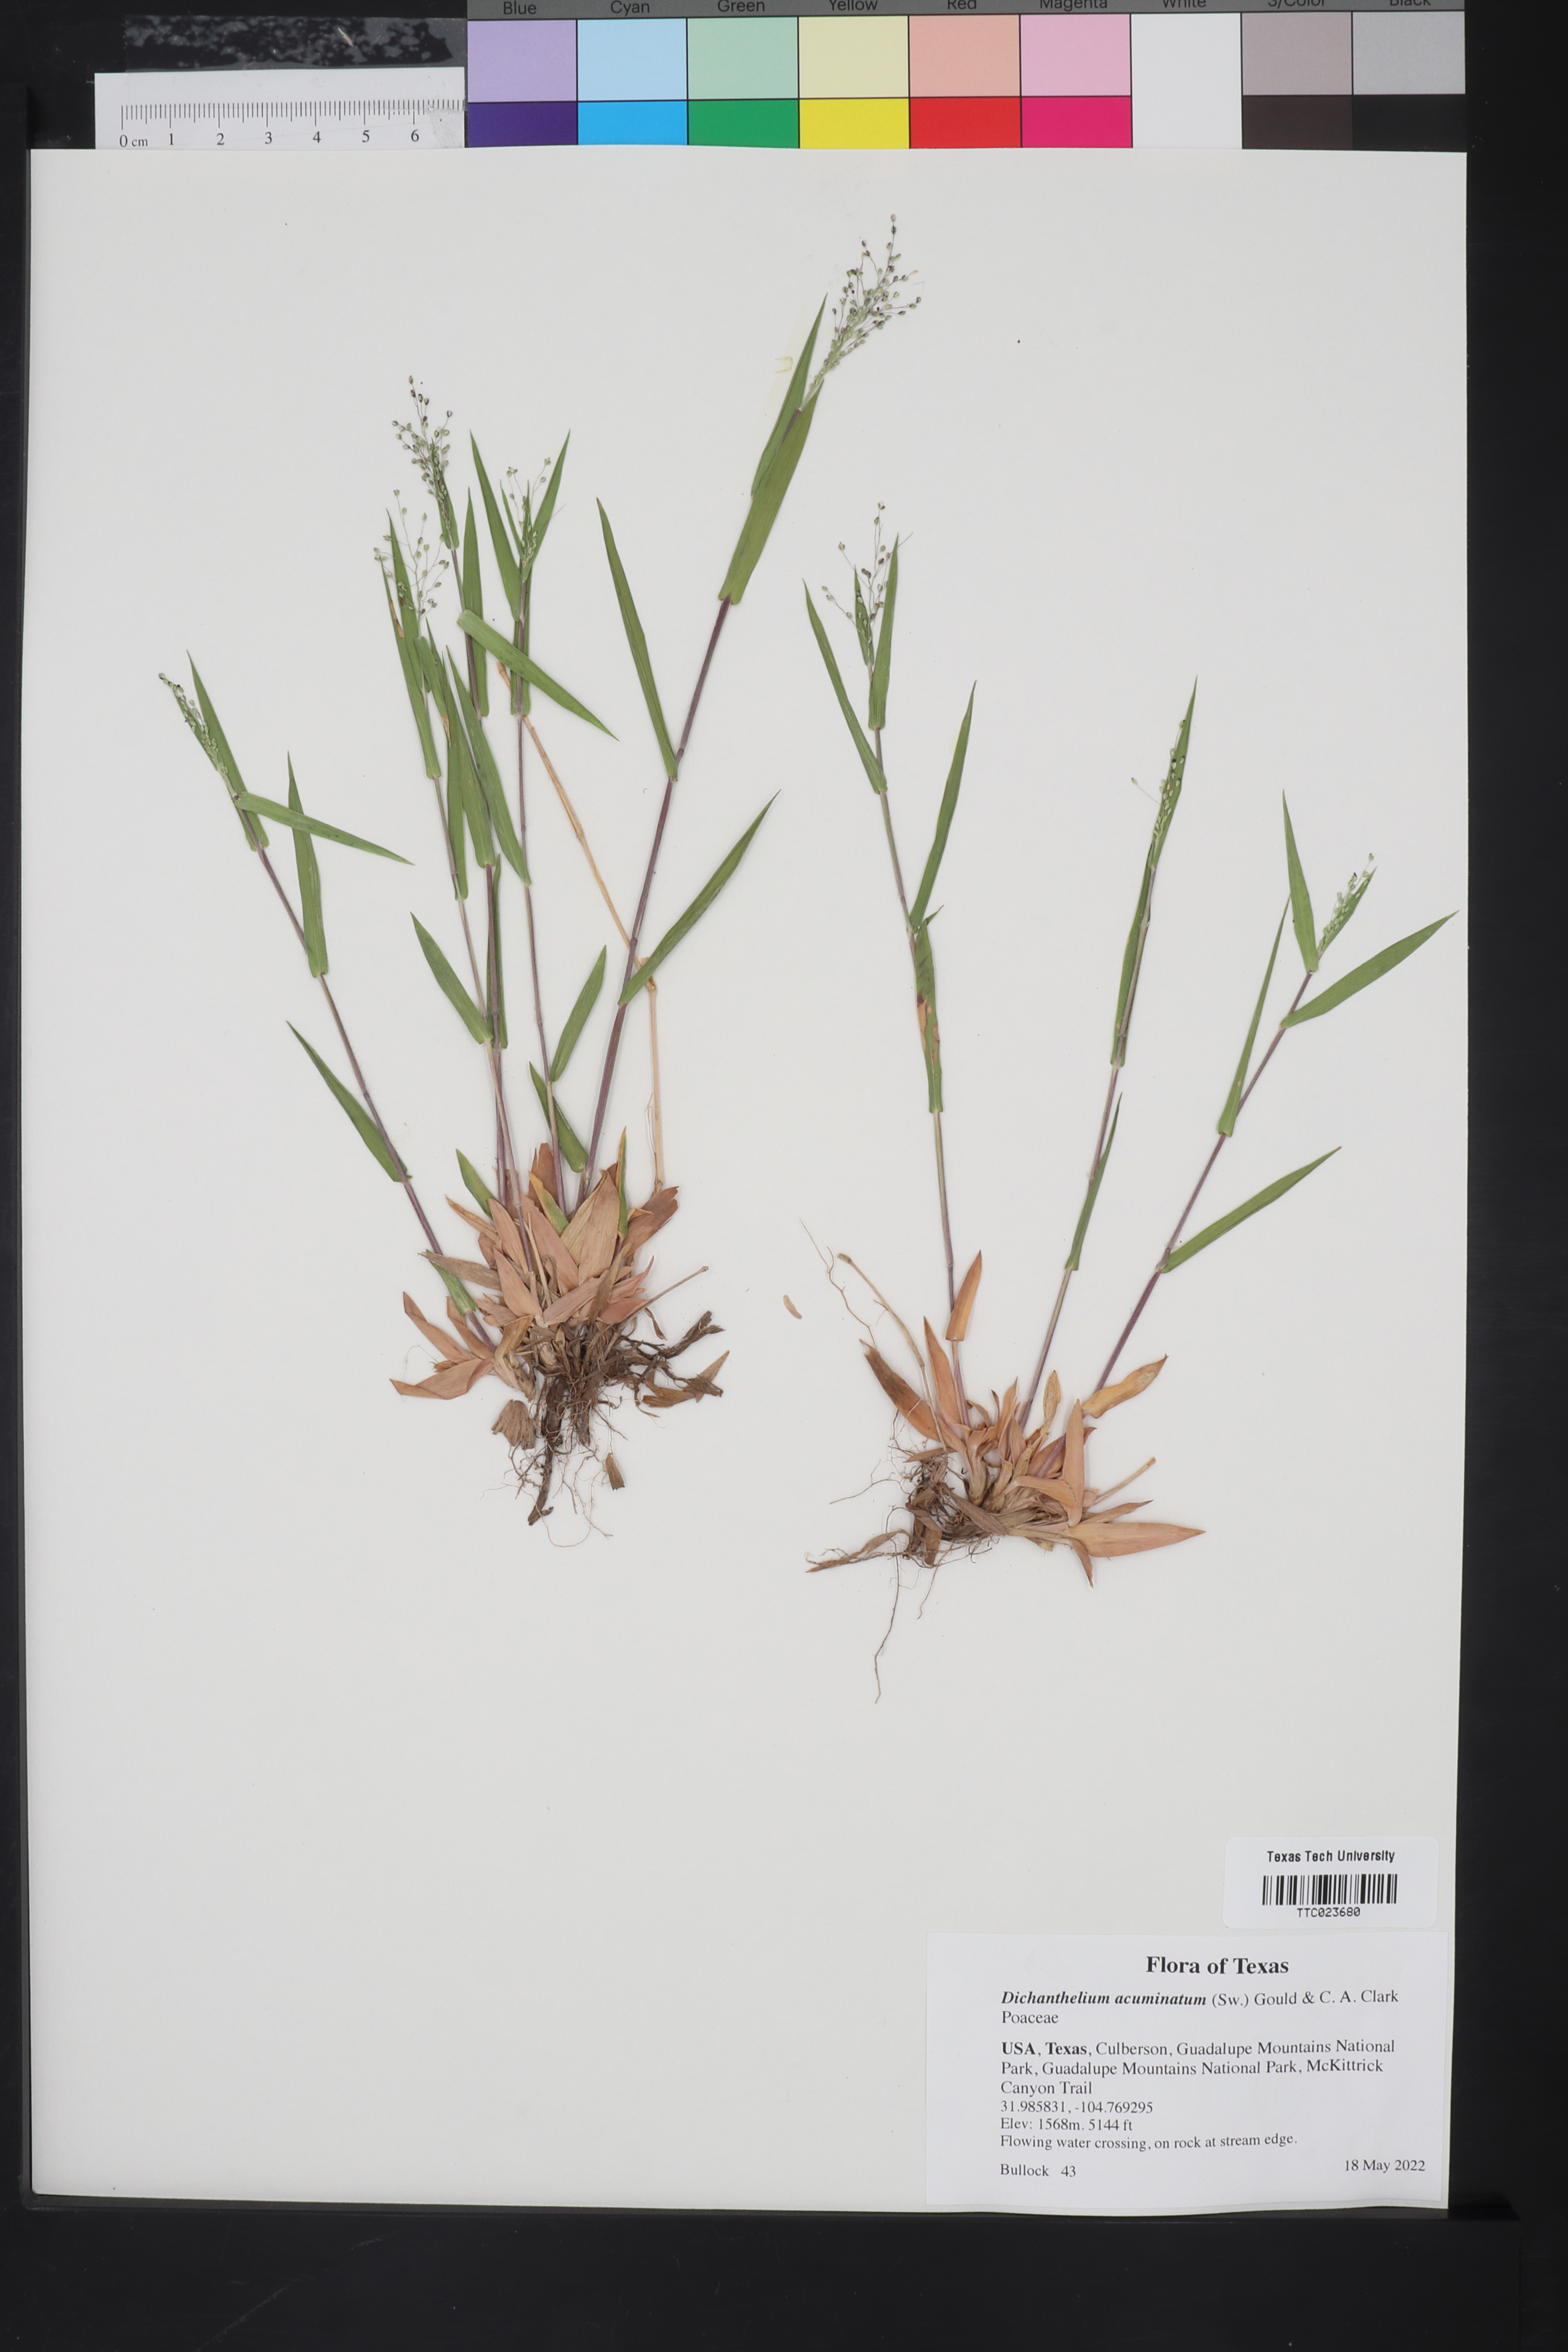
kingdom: Plantae
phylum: Tracheophyta
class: Liliopsida
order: Poales
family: Poaceae
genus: Dichanthelium
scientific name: Dichanthelium acuminatum
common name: Hairy panic grass
